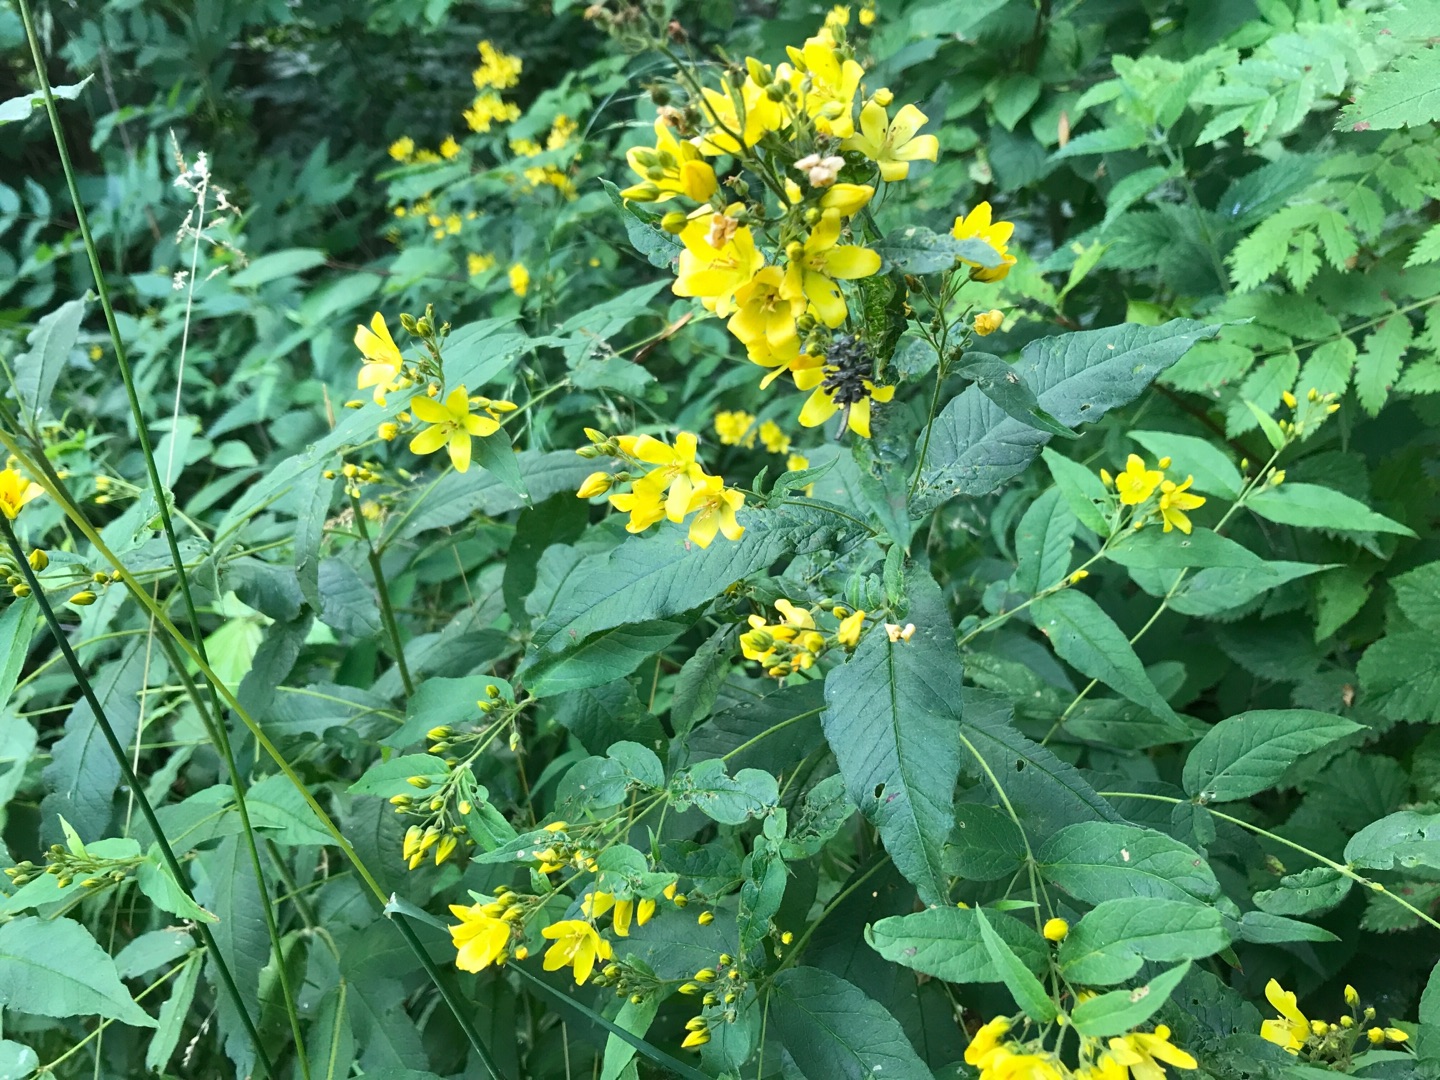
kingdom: Plantae
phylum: Tracheophyta
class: Magnoliopsida
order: Ericales
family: Primulaceae
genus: Lysimachia
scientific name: Lysimachia vulgaris
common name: Almindelig fredløs
